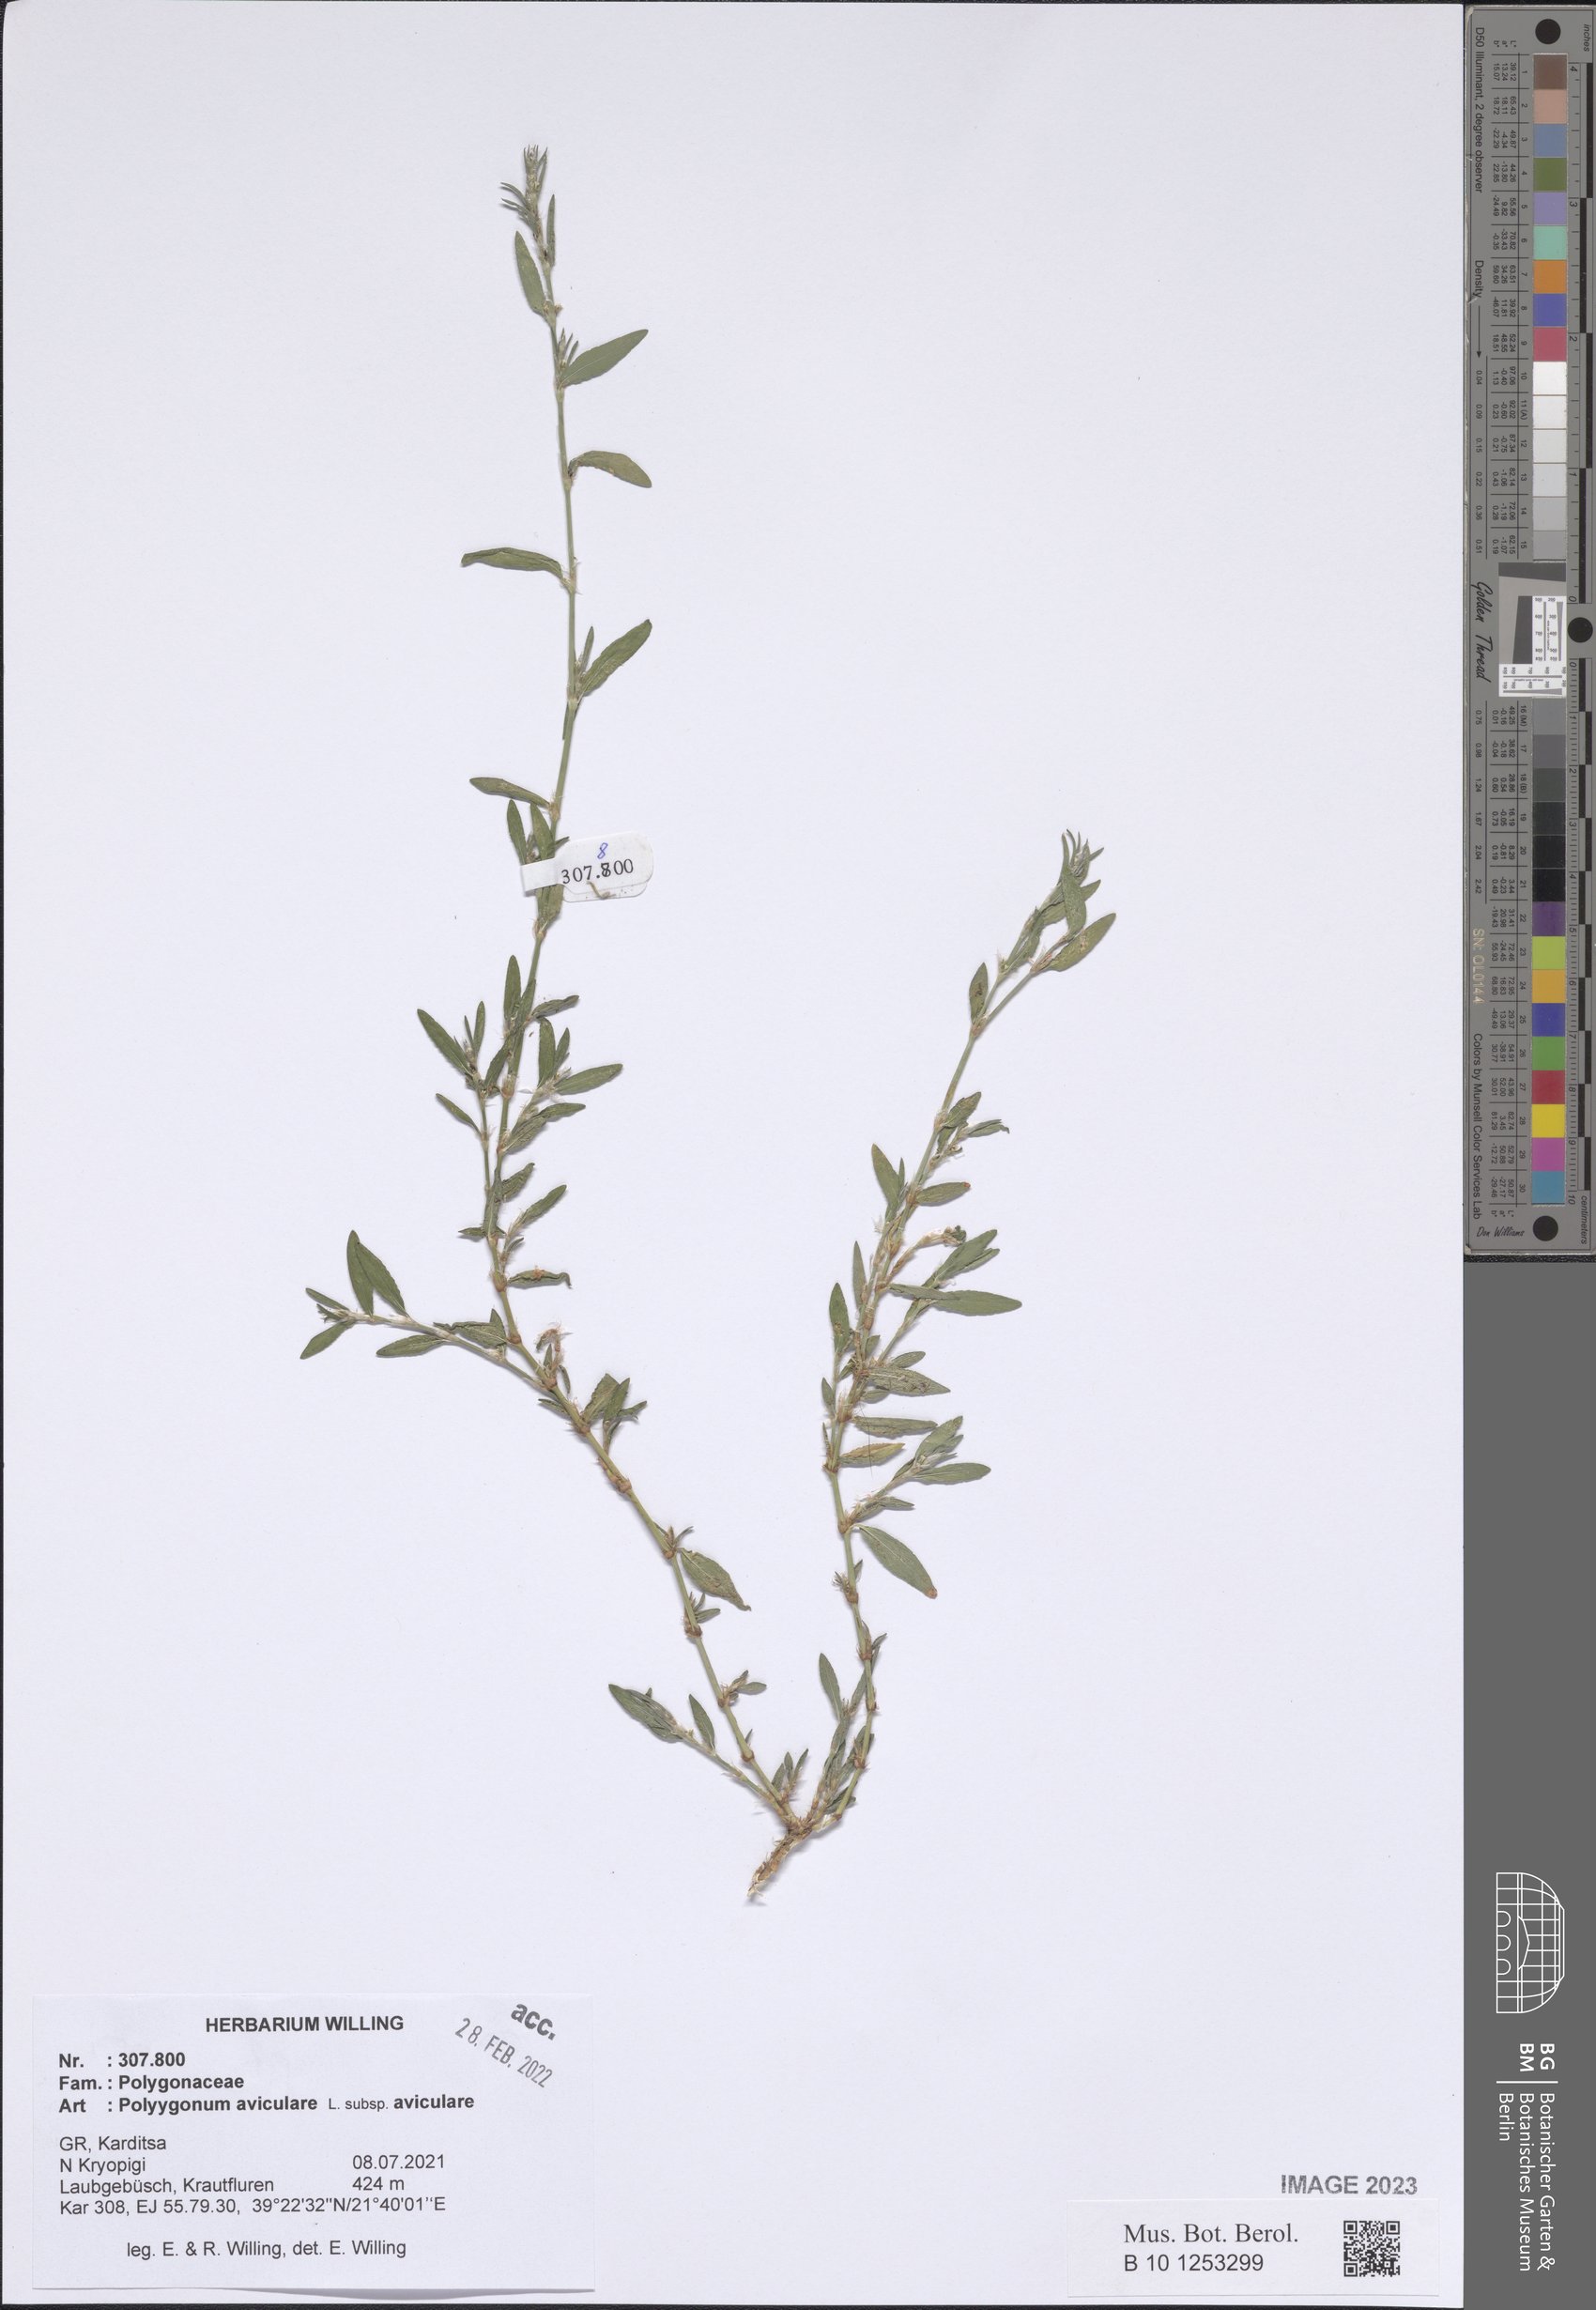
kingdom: Plantae
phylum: Tracheophyta
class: Magnoliopsida
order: Caryophyllales
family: Polygonaceae
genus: Polygonum
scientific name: Polygonum aviculare
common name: Prostrate knotweed
